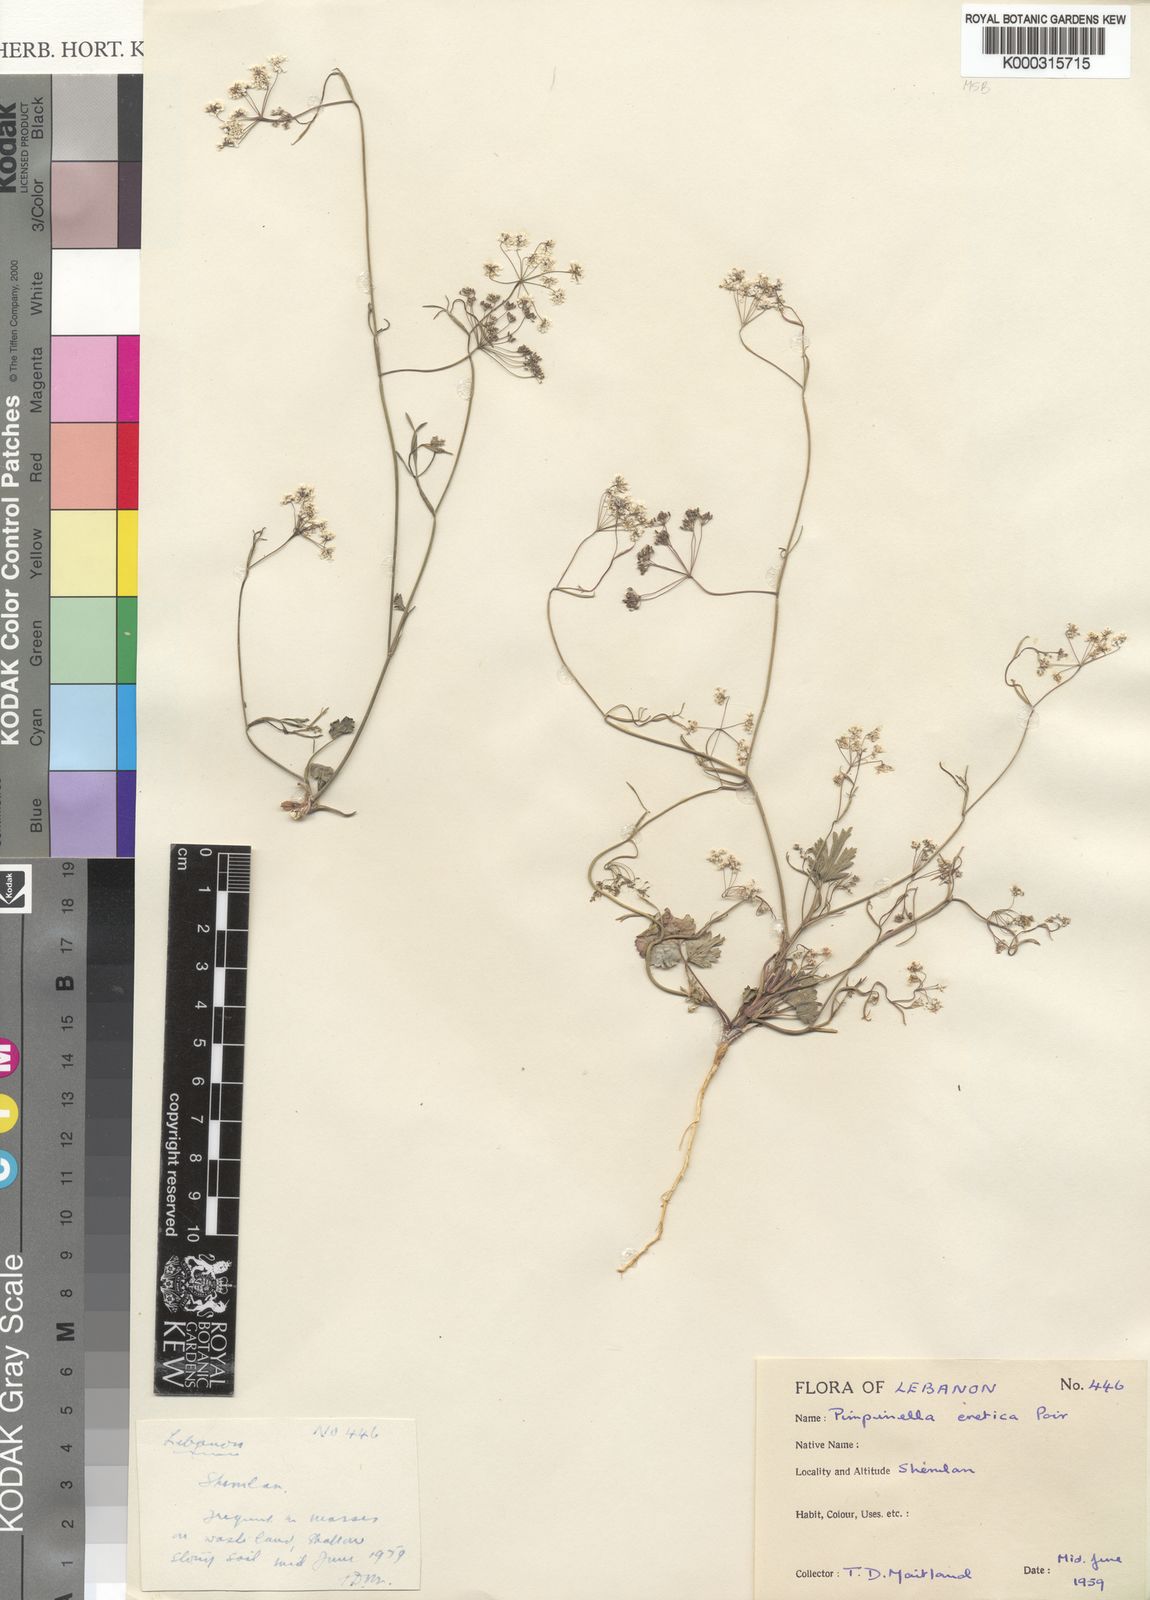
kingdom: Plantae
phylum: Tracheophyta
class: Magnoliopsida
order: Apiales
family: Apiaceae
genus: Pimpinella
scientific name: Pimpinella cretica
